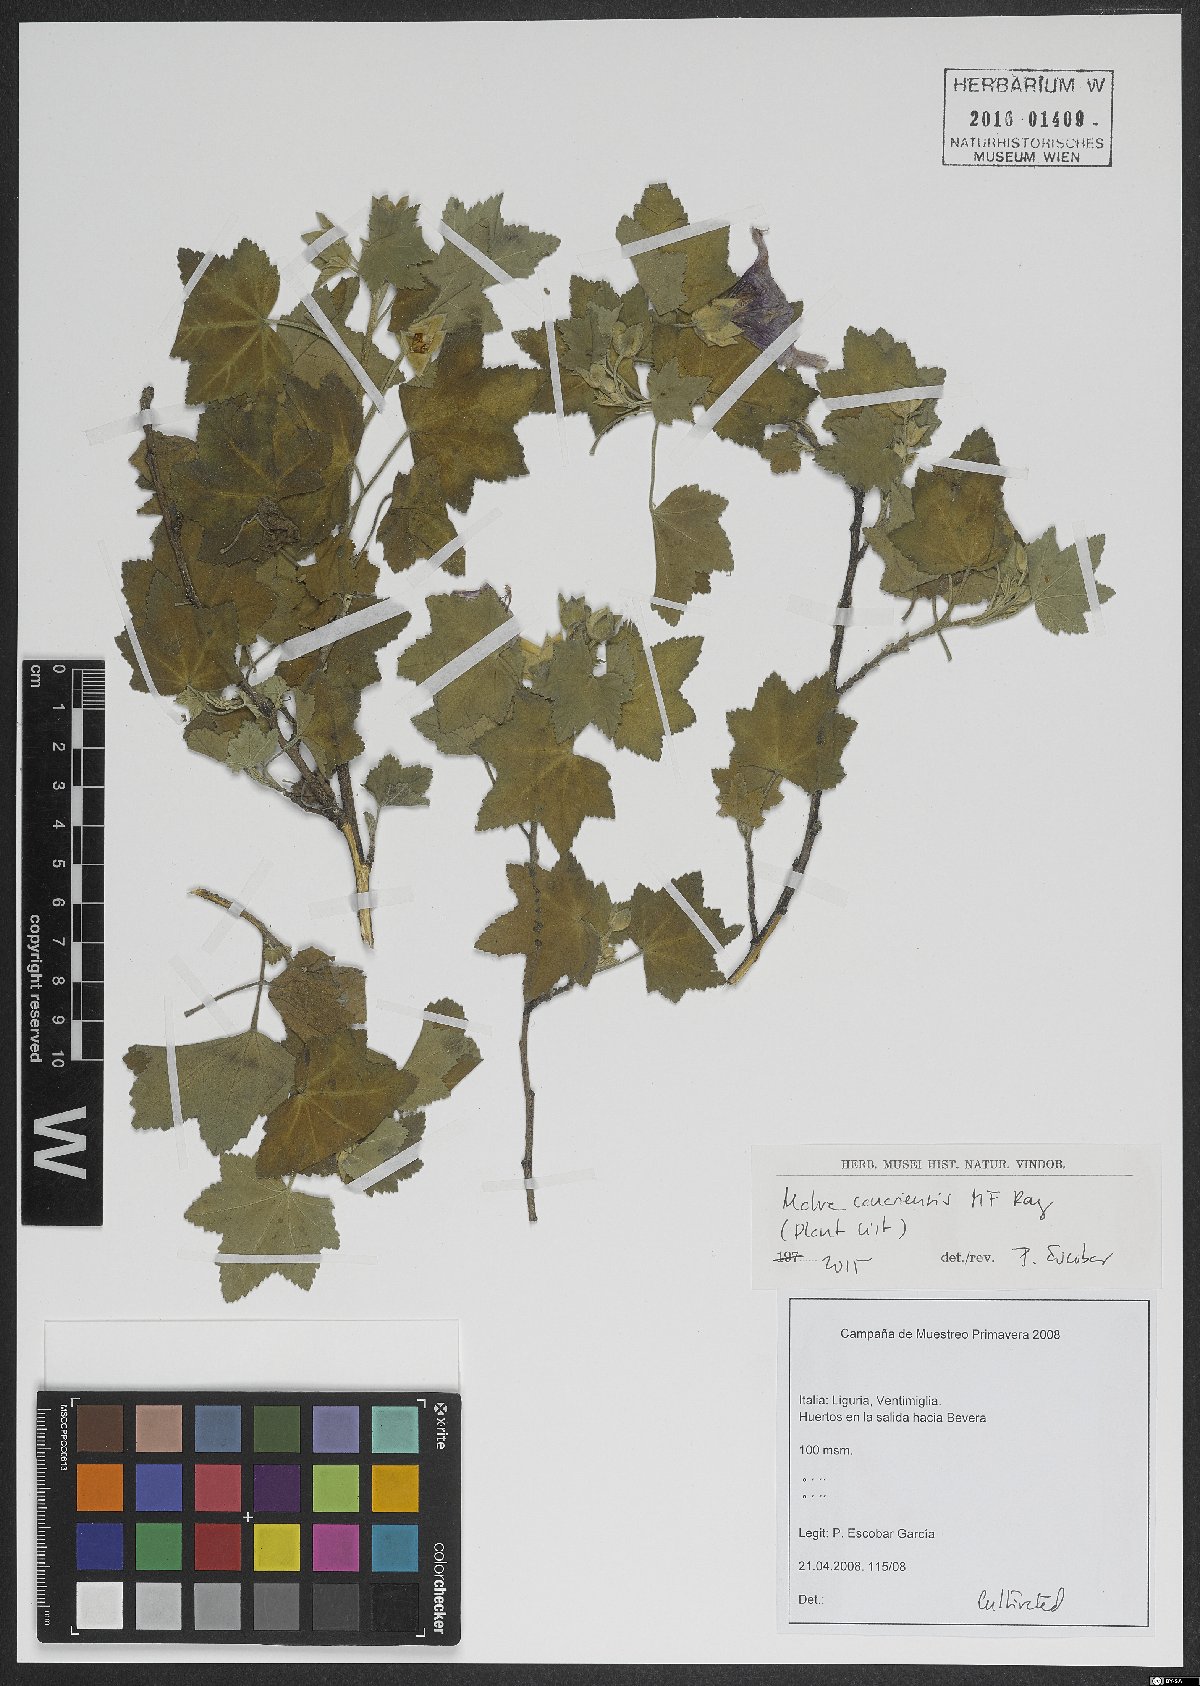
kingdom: Plantae
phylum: Tracheophyta
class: Magnoliopsida
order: Malvales
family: Malvaceae
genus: Malva
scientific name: Malva acerifolia
